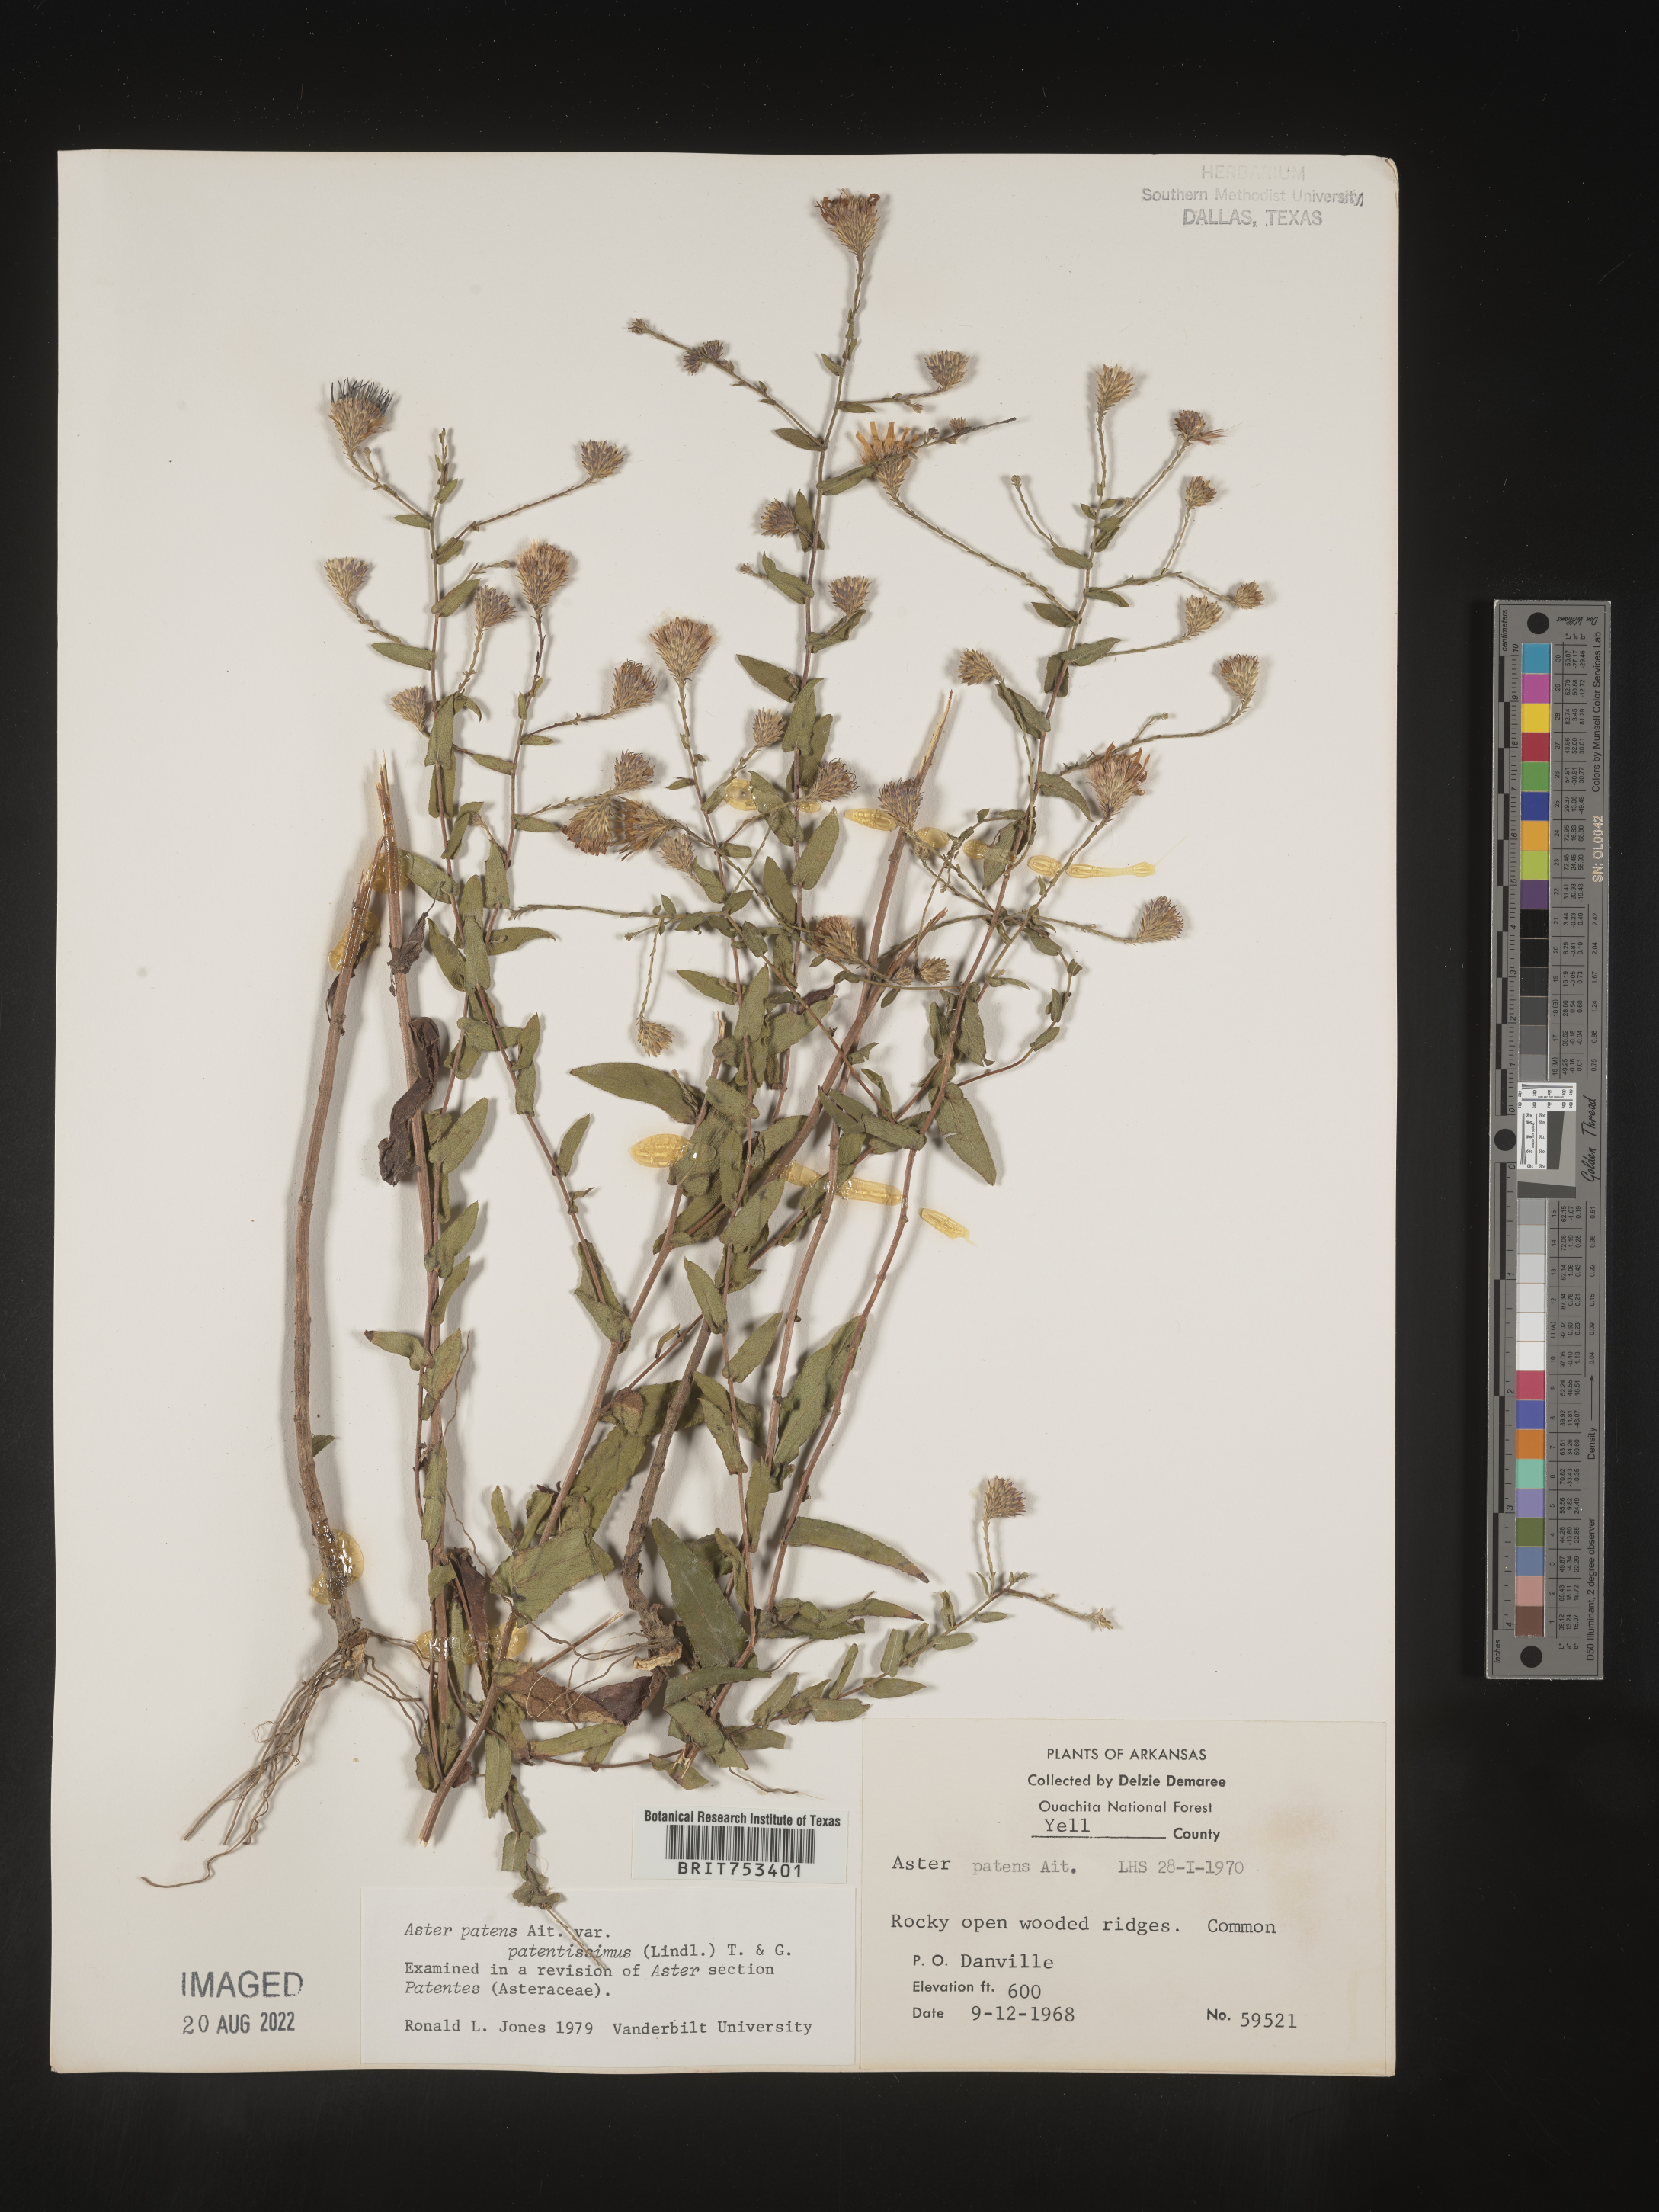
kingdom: Plantae
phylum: Tracheophyta
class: Magnoliopsida
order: Asterales
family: Asteraceae
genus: Symphyotrichum
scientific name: Symphyotrichum patens
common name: Late purple aster
